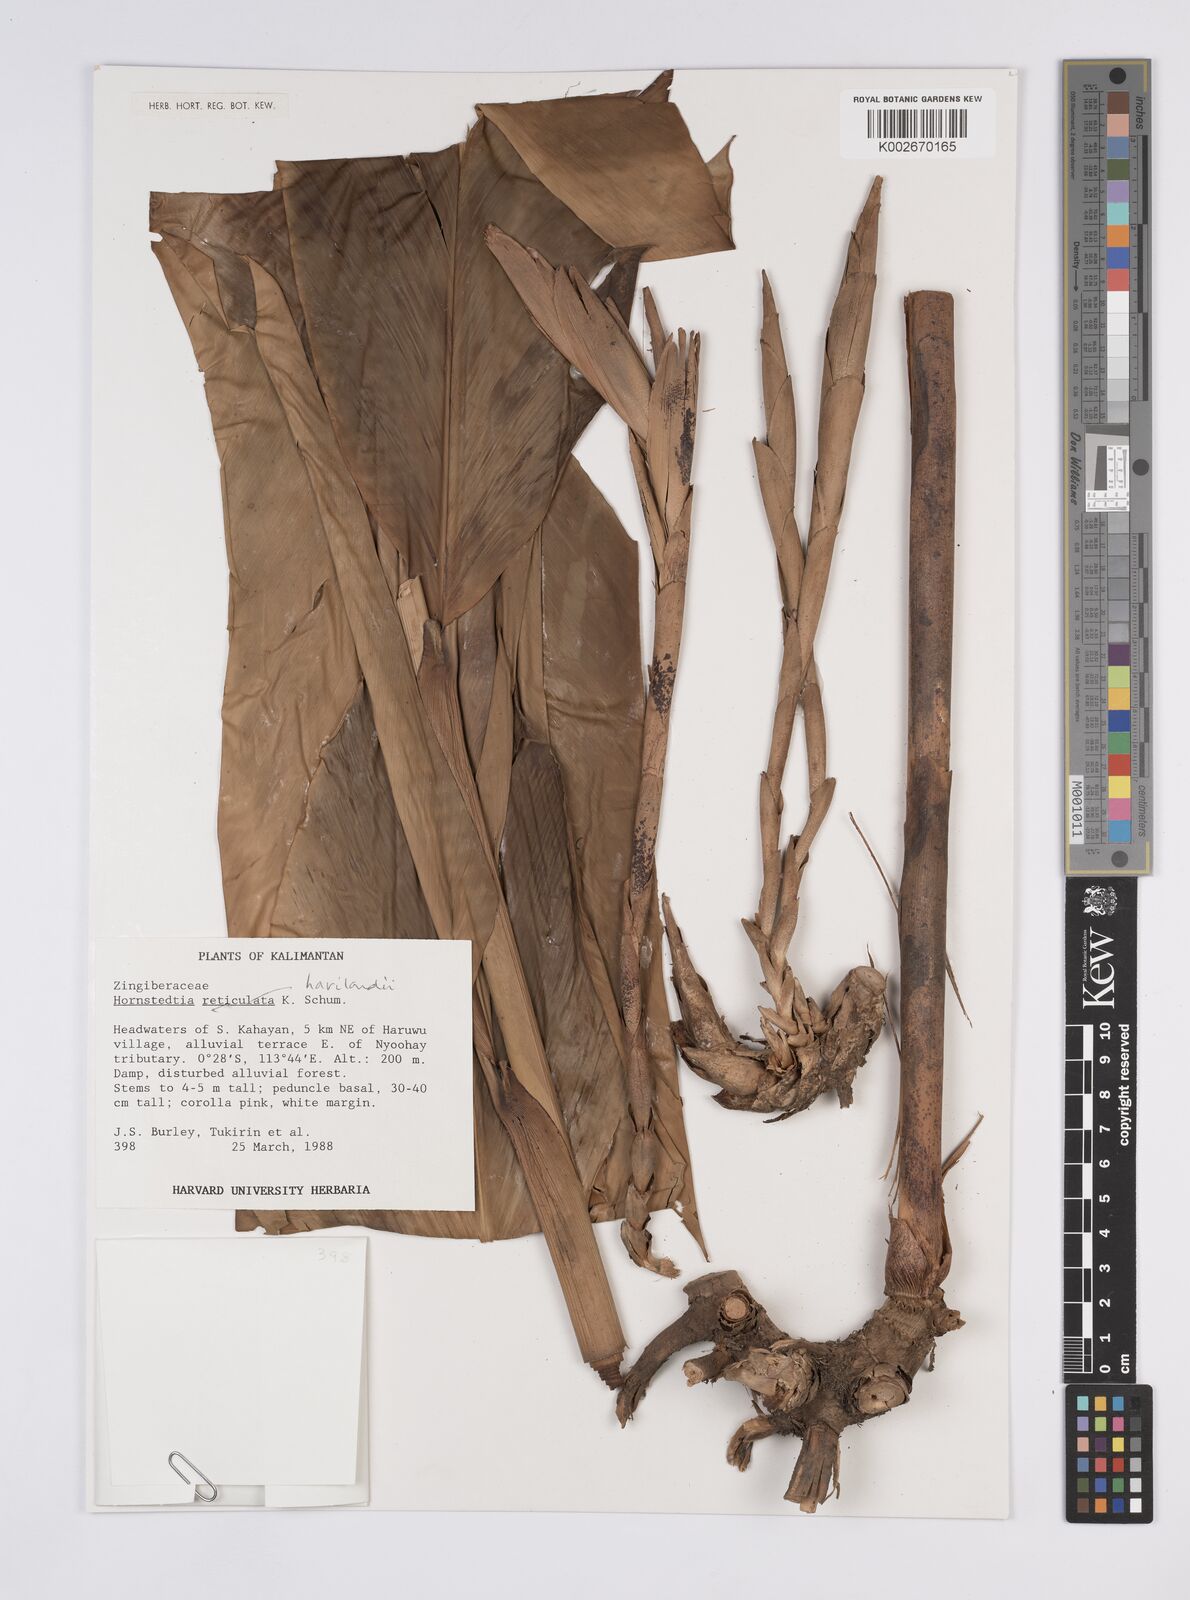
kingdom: Plantae
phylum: Tracheophyta
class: Liliopsida
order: Zingiberales
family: Zingiberaceae
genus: Hornstedtia
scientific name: Hornstedtia havilandii
